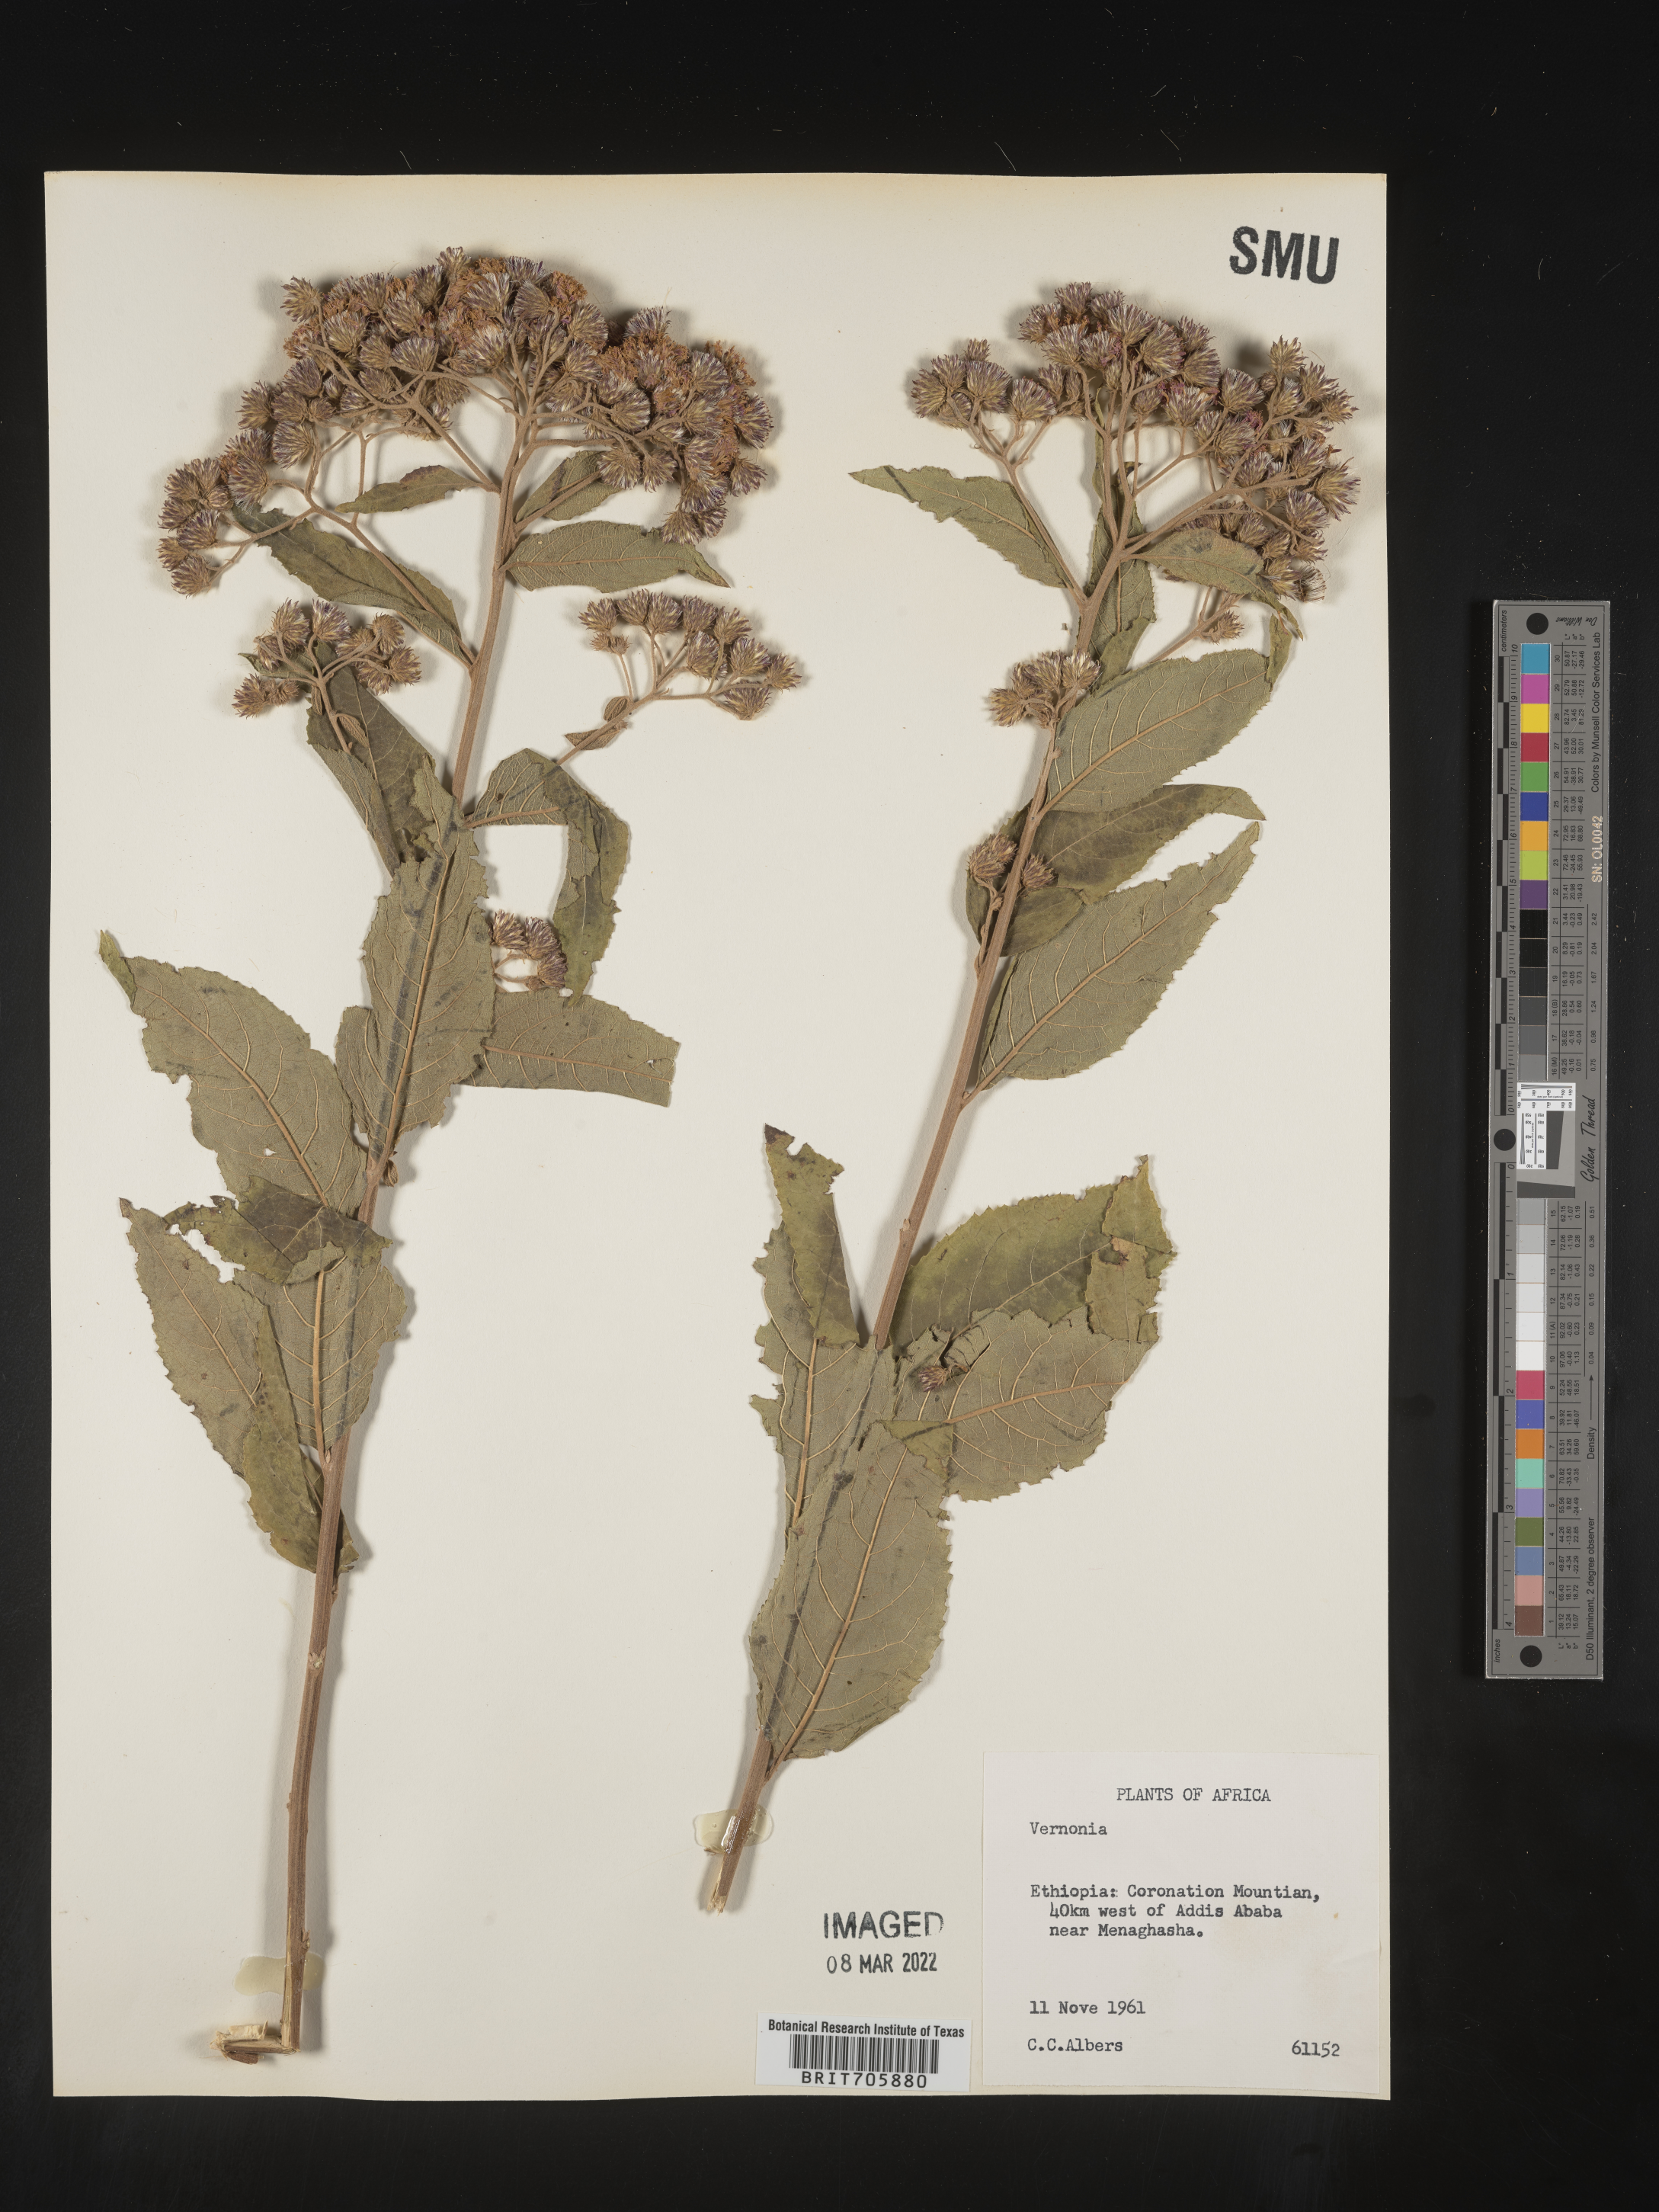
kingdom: Plantae
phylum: Tracheophyta
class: Magnoliopsida
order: Asterales
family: Asteraceae
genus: Vernonia
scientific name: Vernonia
